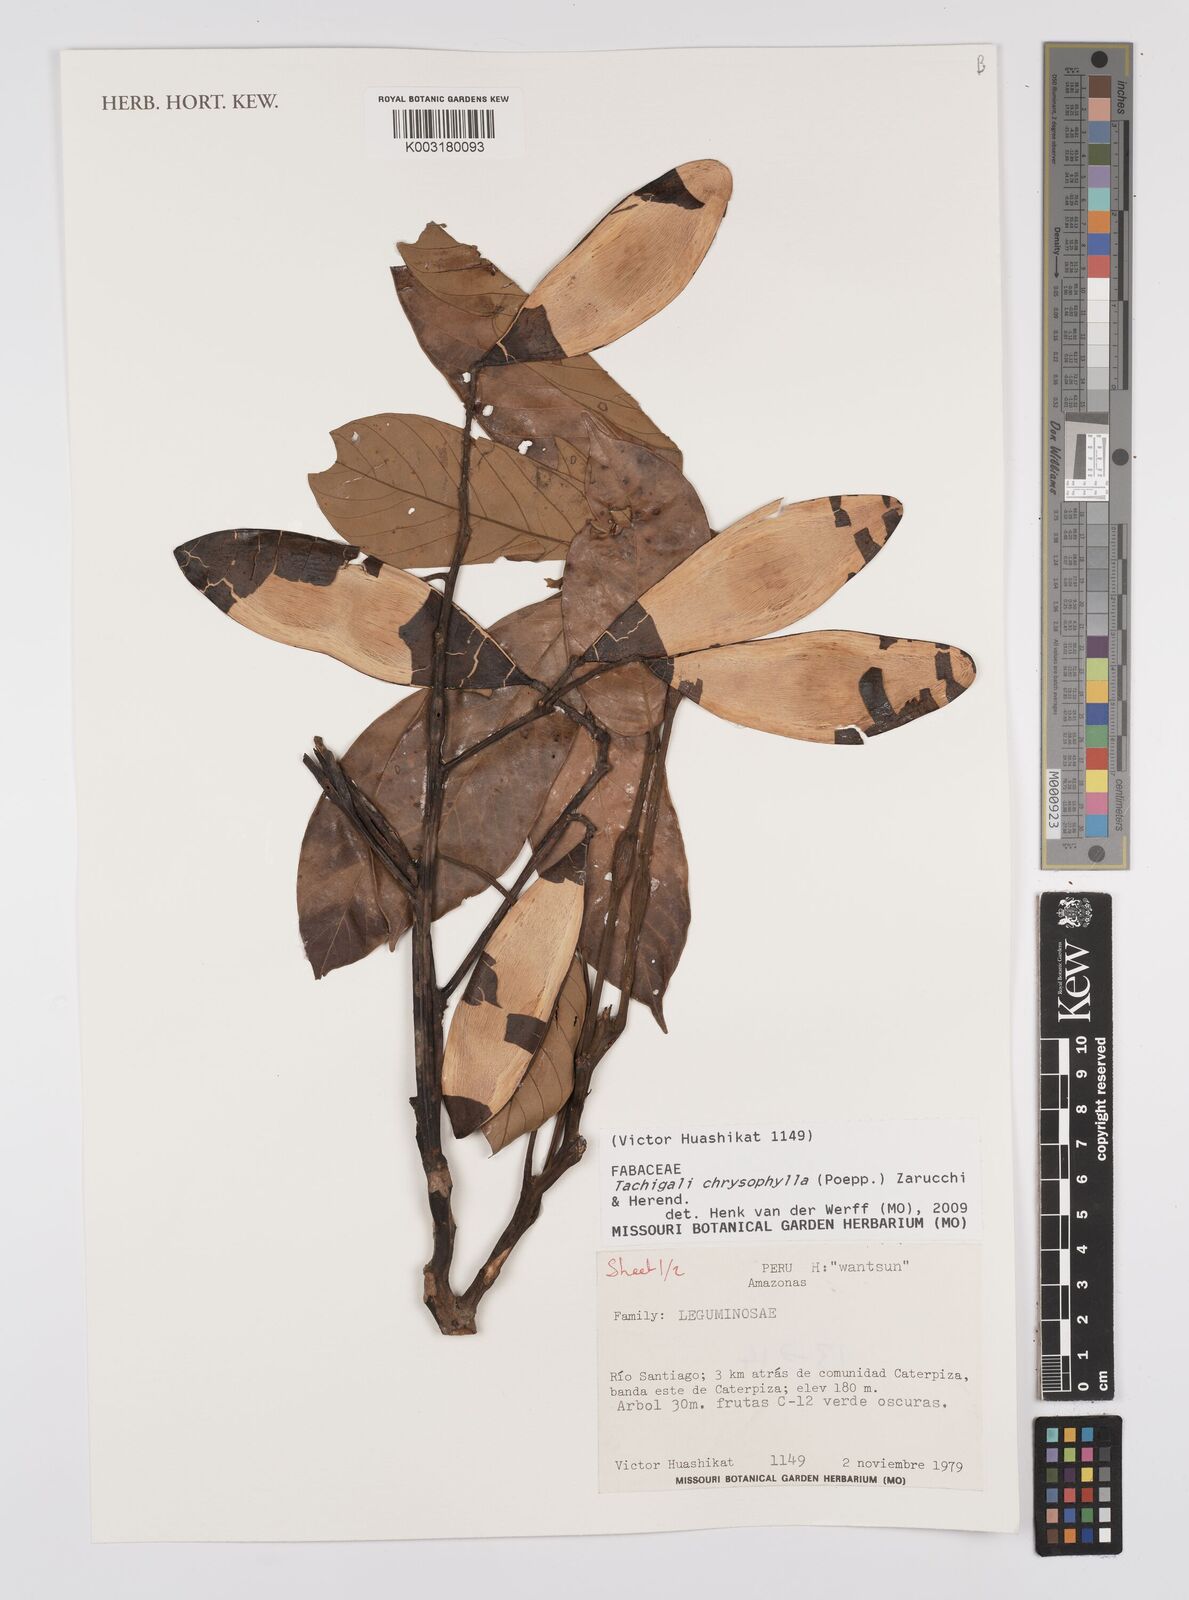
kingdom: Plantae
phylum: Tracheophyta
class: Magnoliopsida
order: Fabales
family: Fabaceae
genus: Tachigali
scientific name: Tachigali chrysophylla
